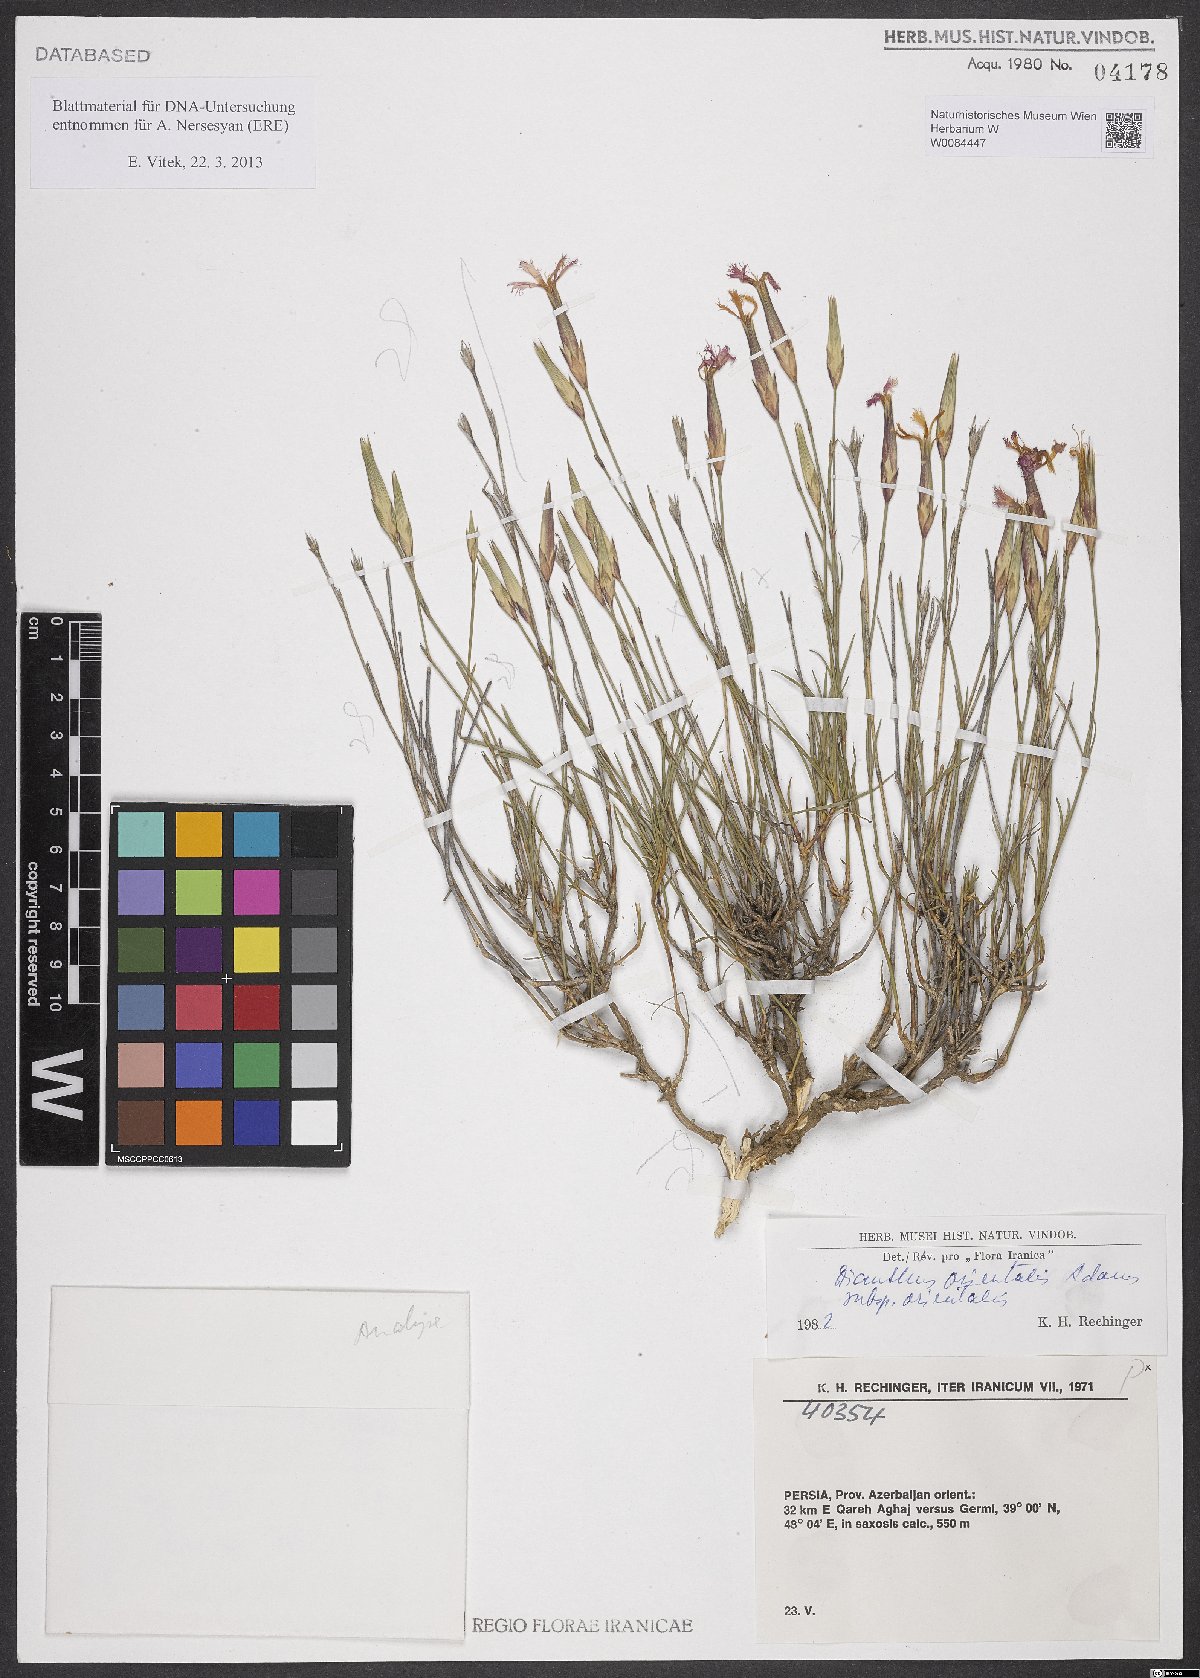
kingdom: Plantae
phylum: Tracheophyta
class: Magnoliopsida
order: Caryophyllales
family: Caryophyllaceae
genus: Dianthus
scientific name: Dianthus orientalis
